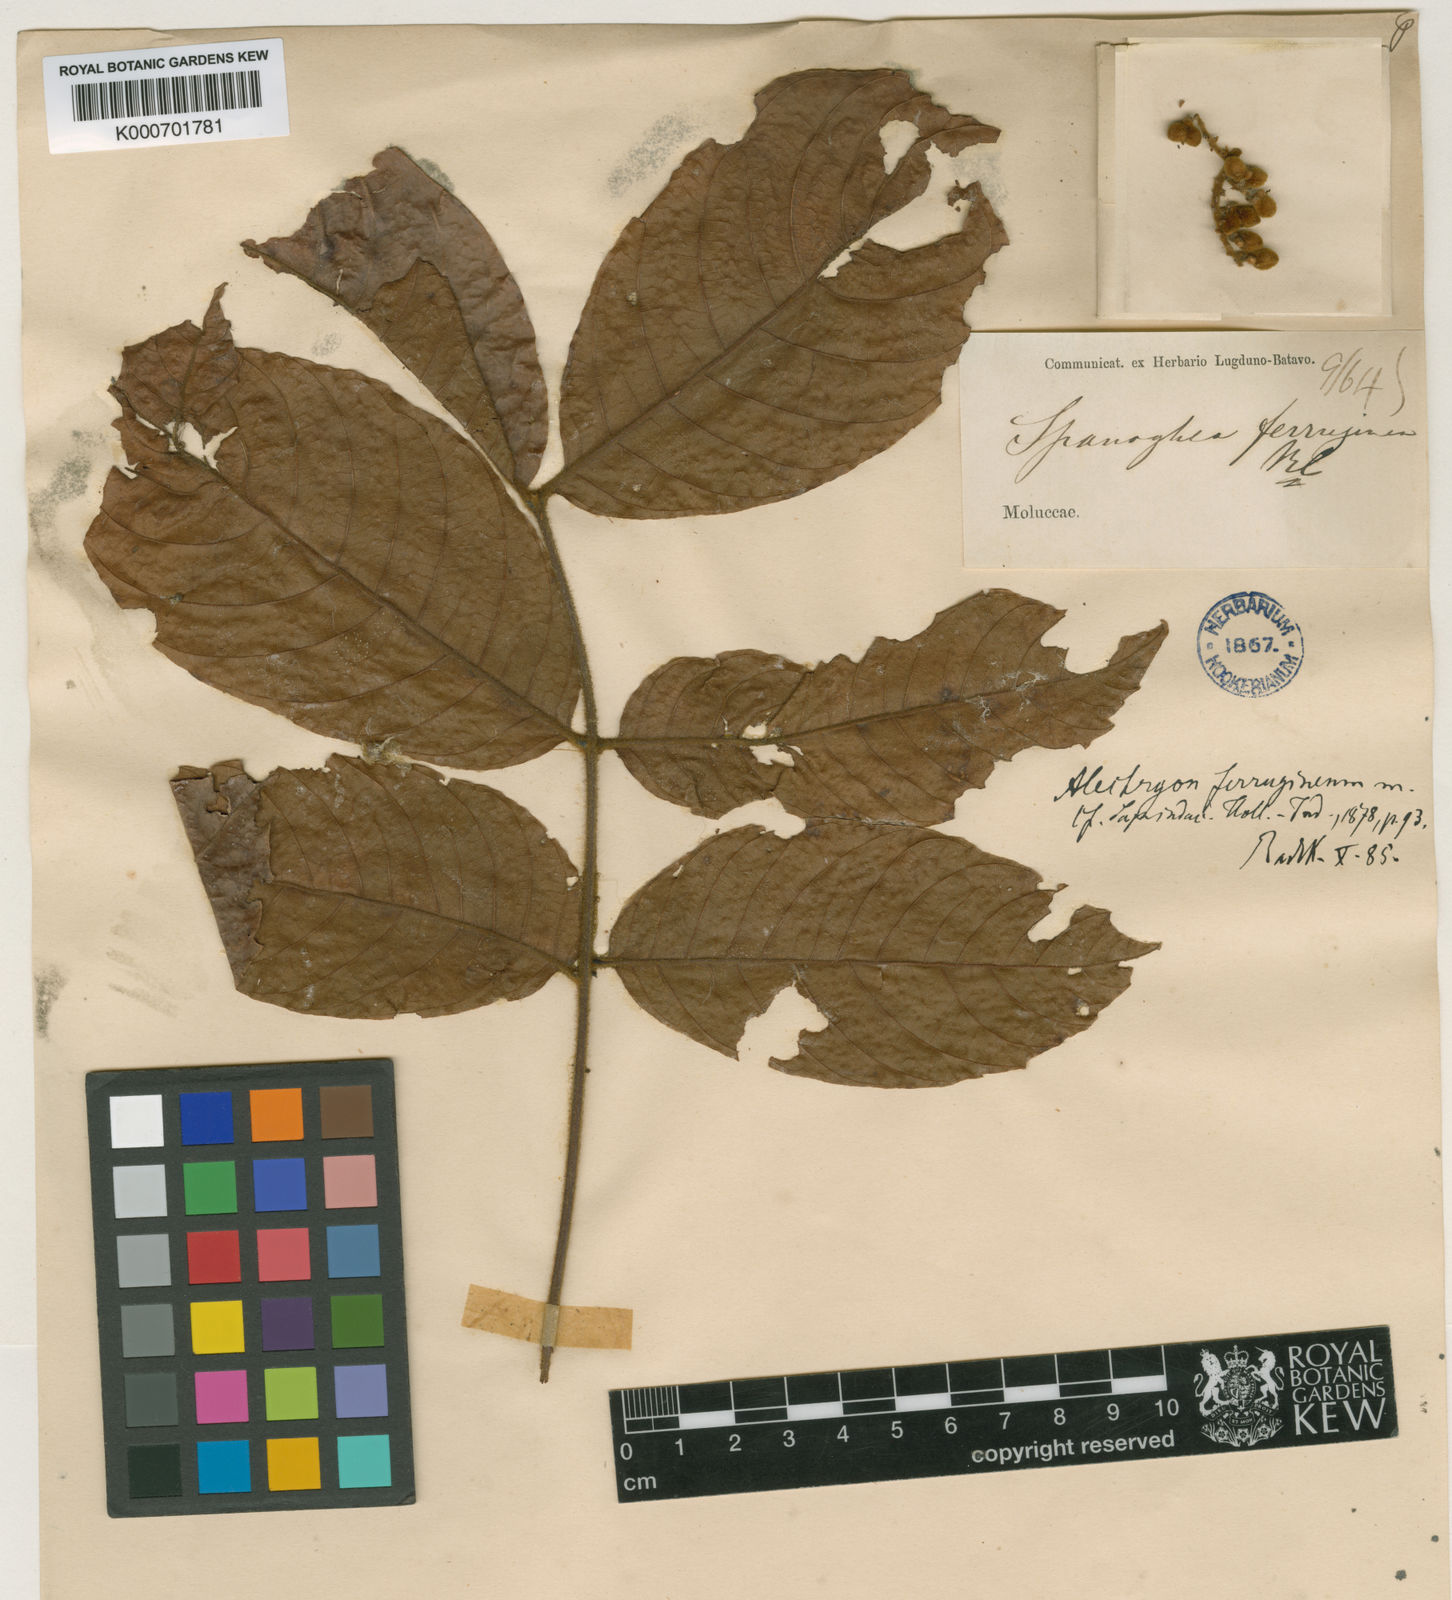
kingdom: Plantae
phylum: Tracheophyta
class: Magnoliopsida
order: Sapindales
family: Sapindaceae
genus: Alectryon
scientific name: Alectryon ferrugineus
